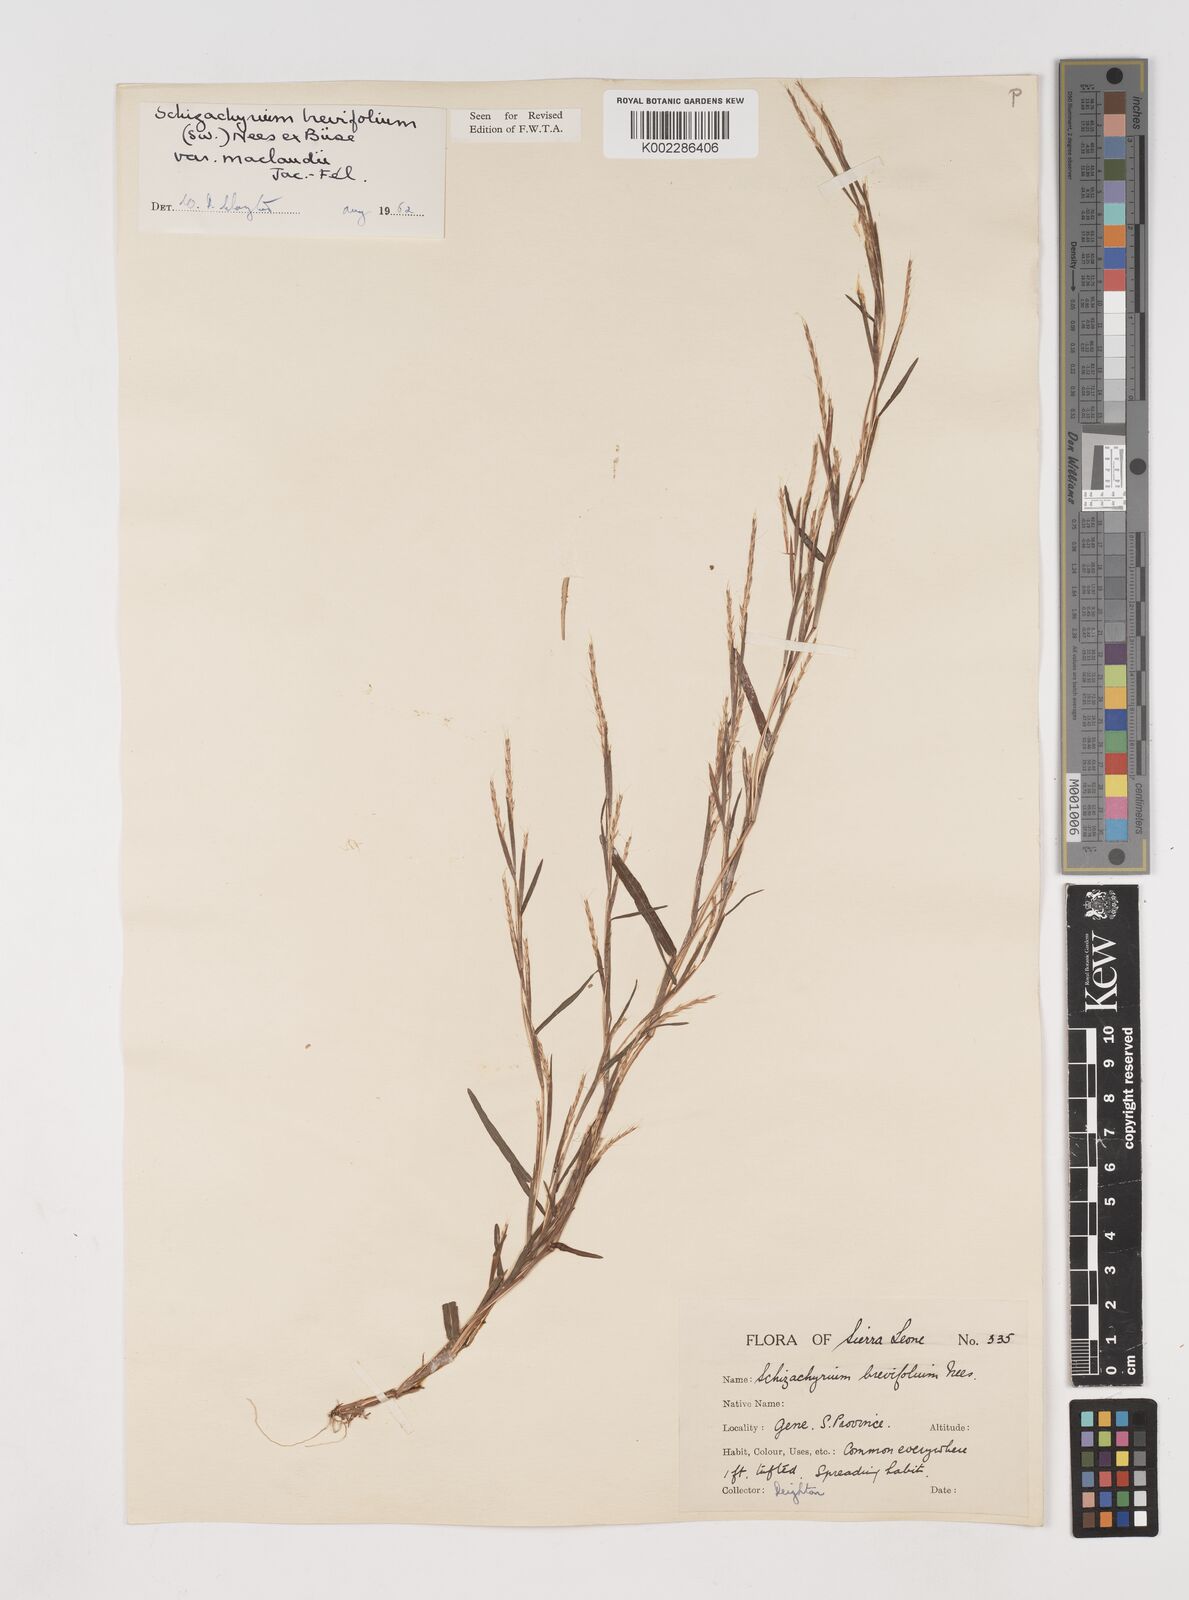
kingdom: Plantae
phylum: Tracheophyta
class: Liliopsida
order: Poales
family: Poaceae
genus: Schizachyrium
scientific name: Schizachyrium maclaudii
